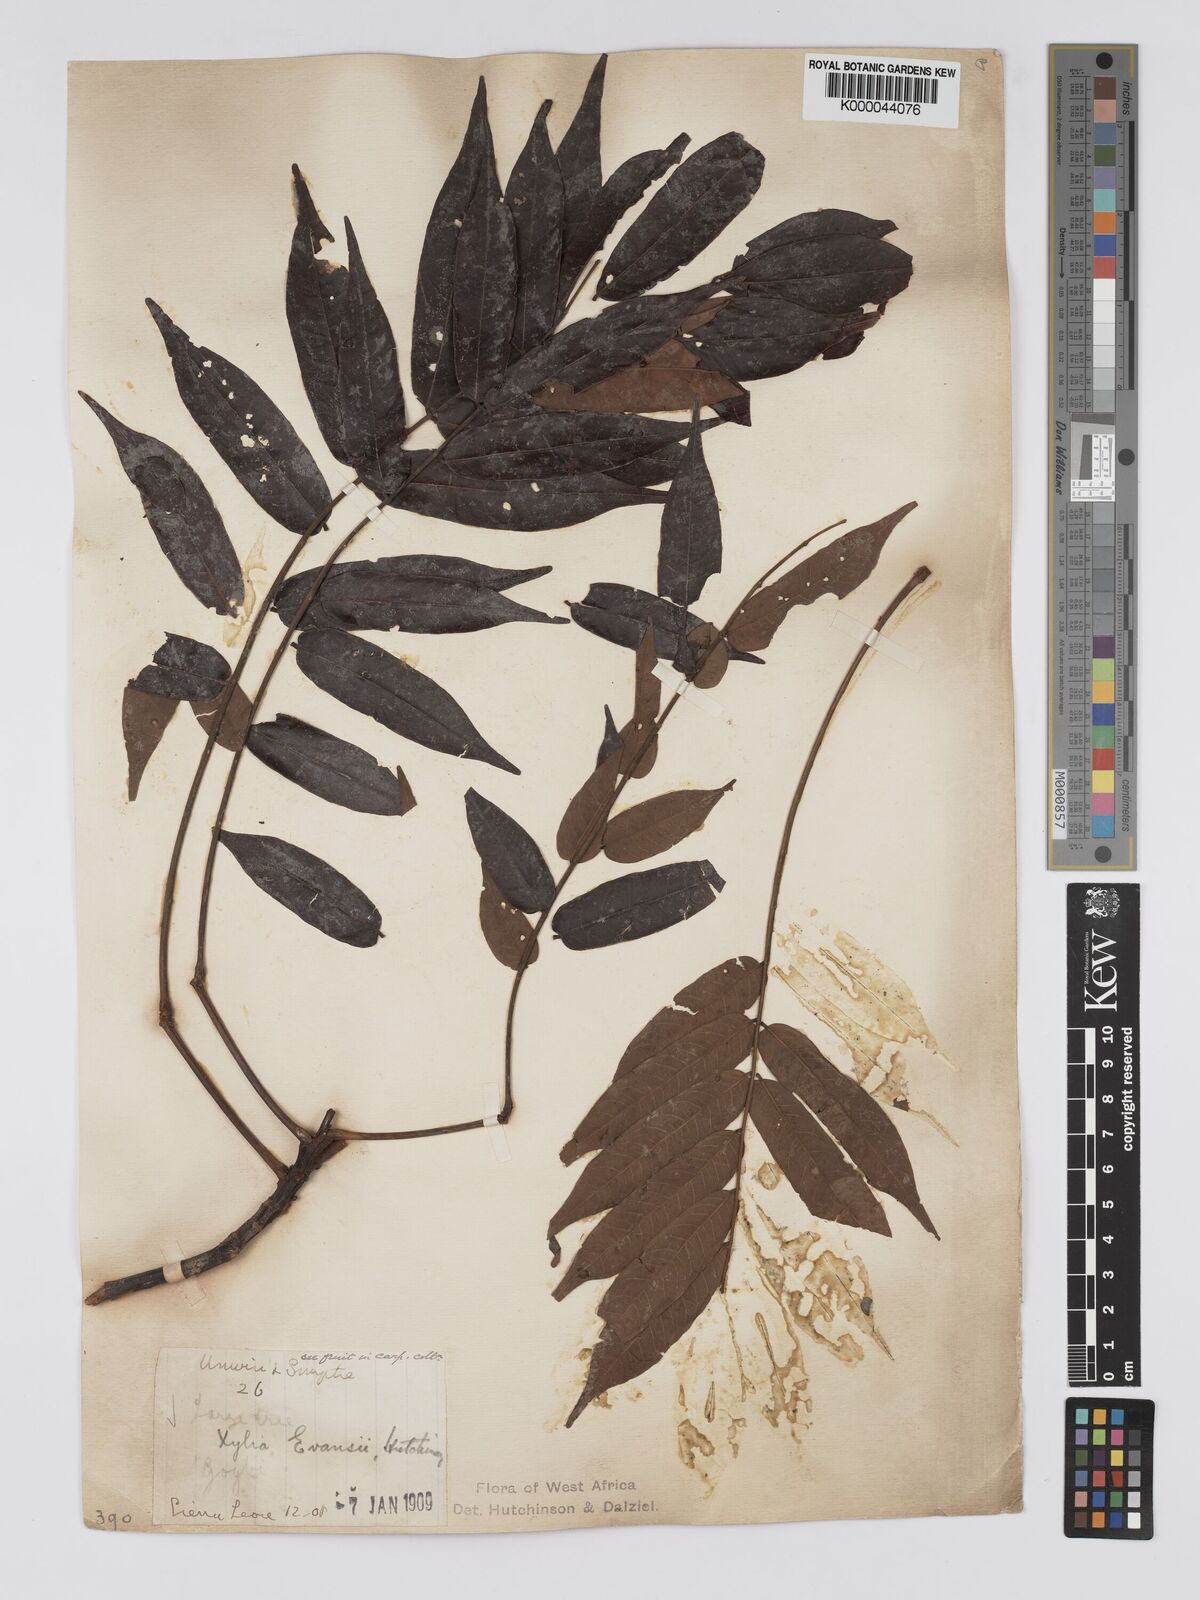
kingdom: Plantae
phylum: Tracheophyta
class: Magnoliopsida
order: Fabales
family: Fabaceae
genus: Xylia
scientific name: Xylia evansii
